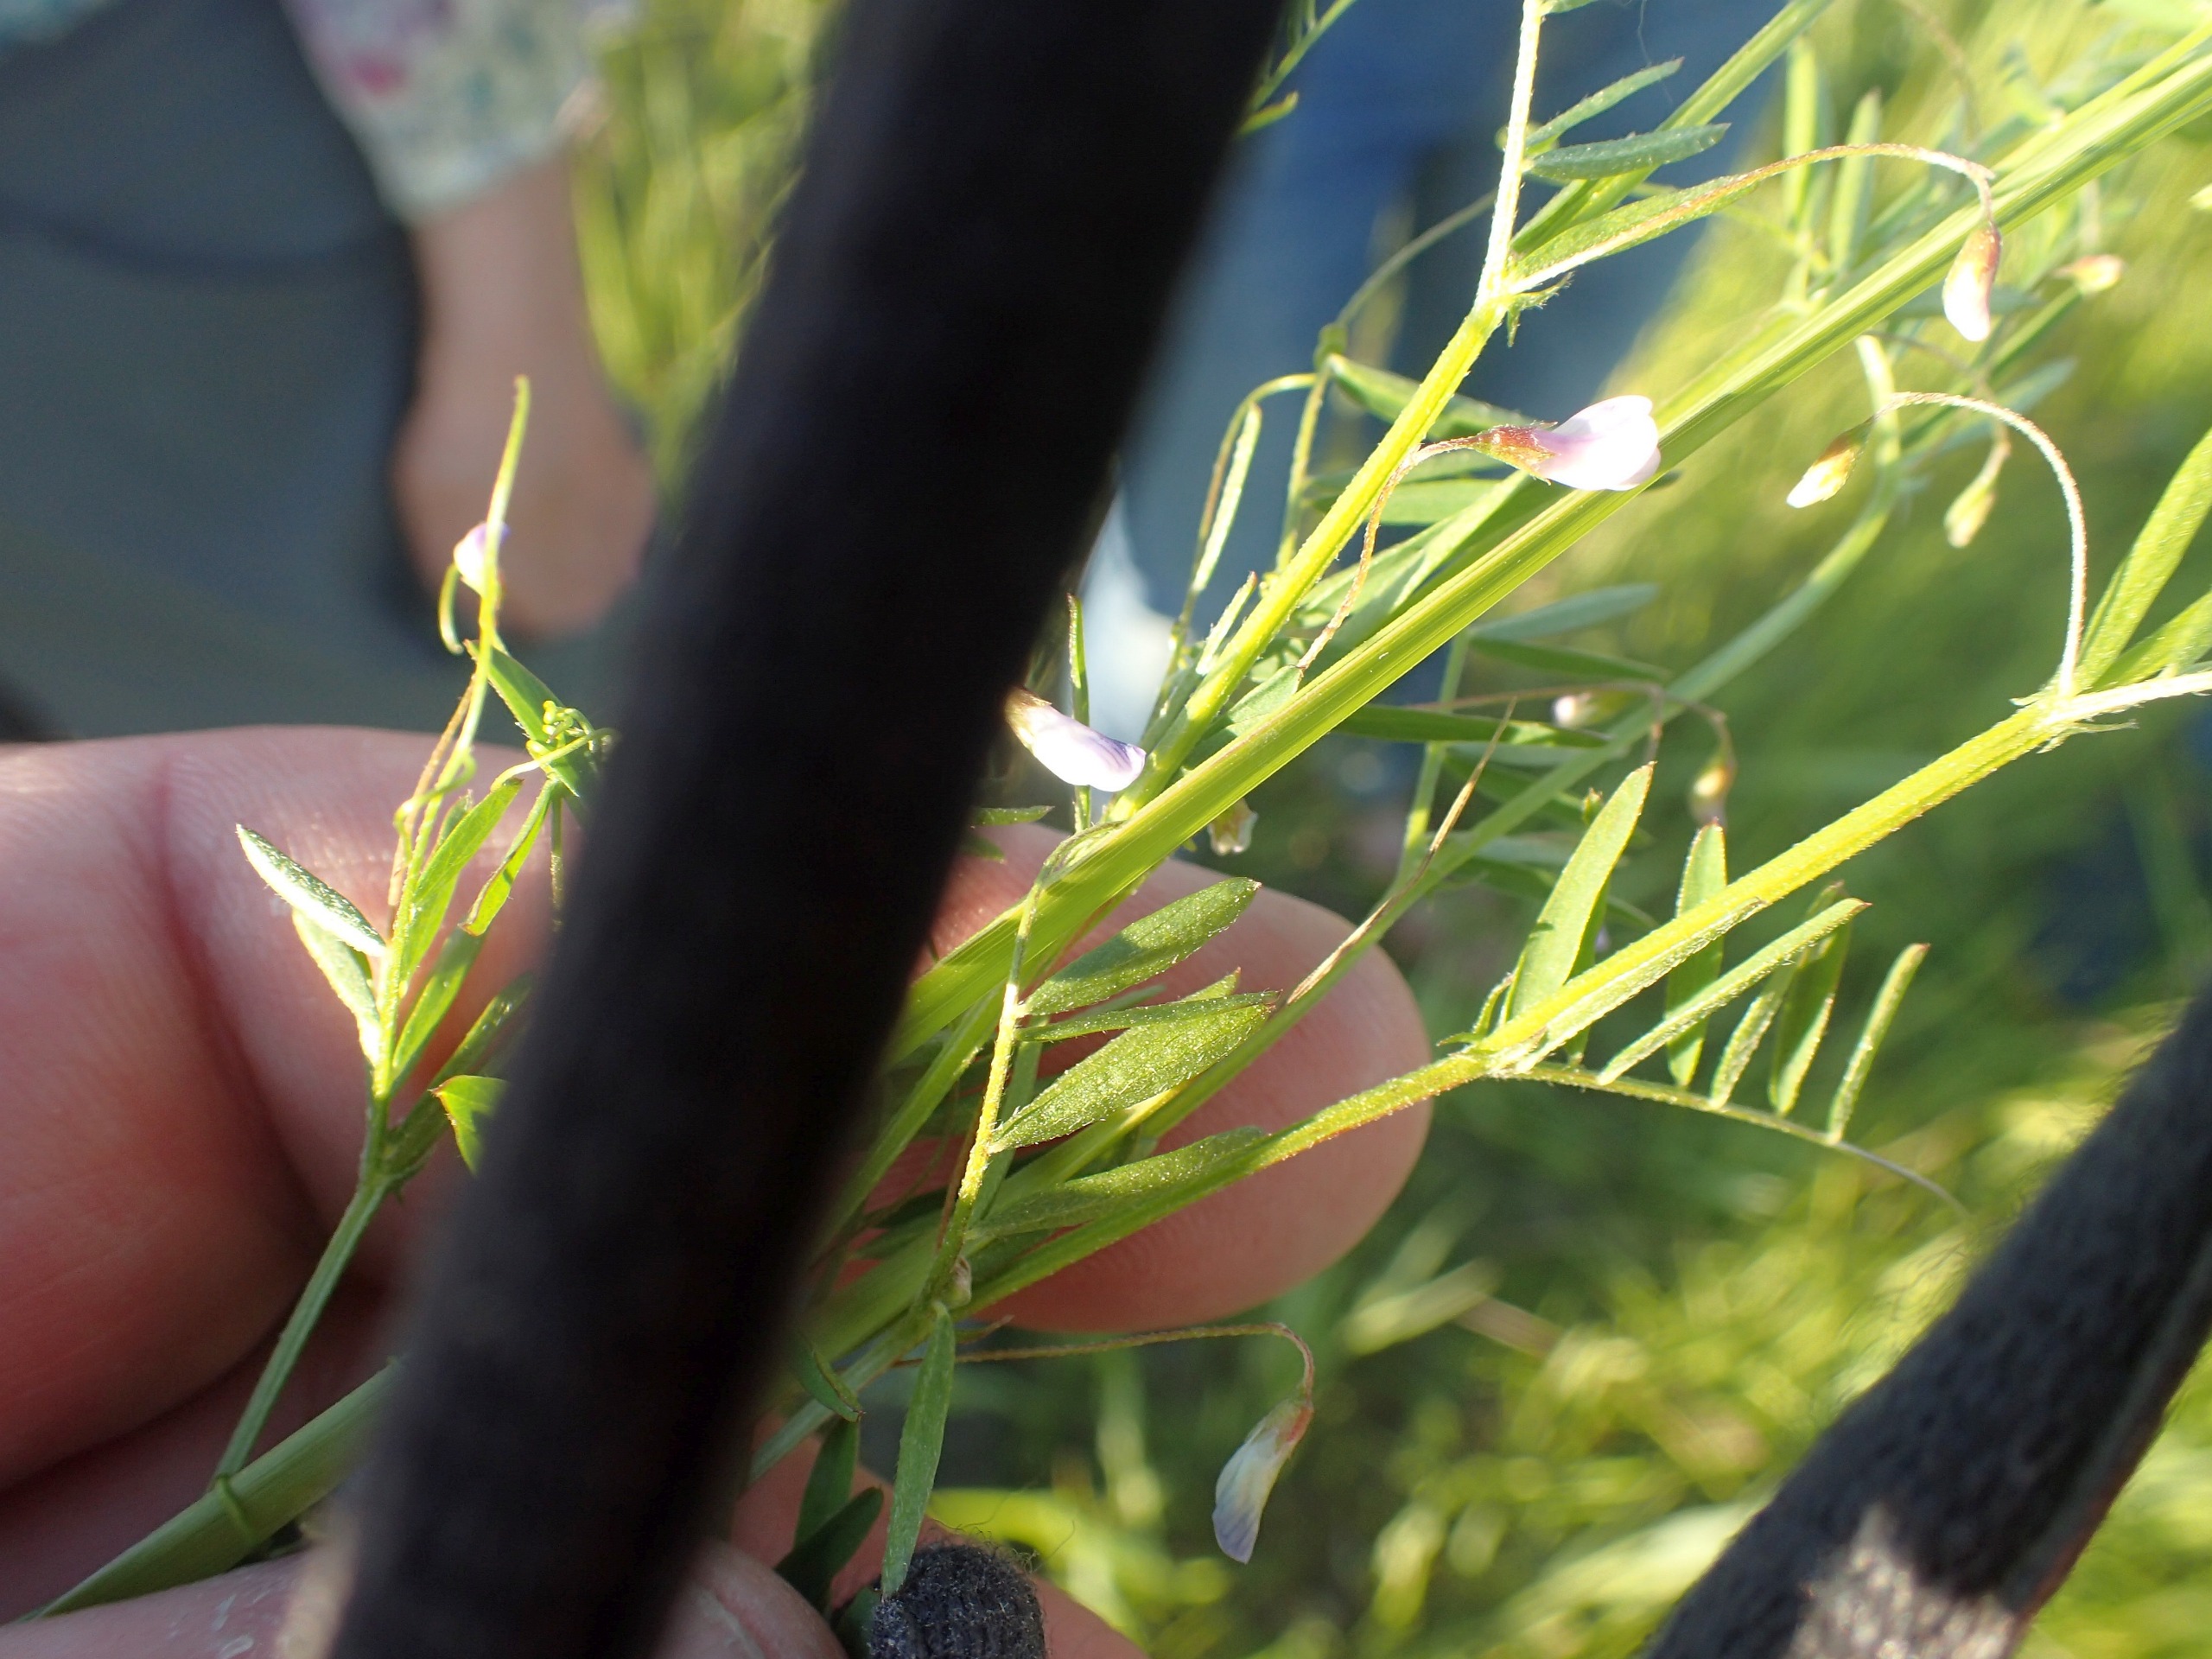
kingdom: Plantae
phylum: Tracheophyta
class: Magnoliopsida
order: Fabales
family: Fabaceae
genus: Vicia
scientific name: Vicia tetrasperma
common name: Tadder-vikke
